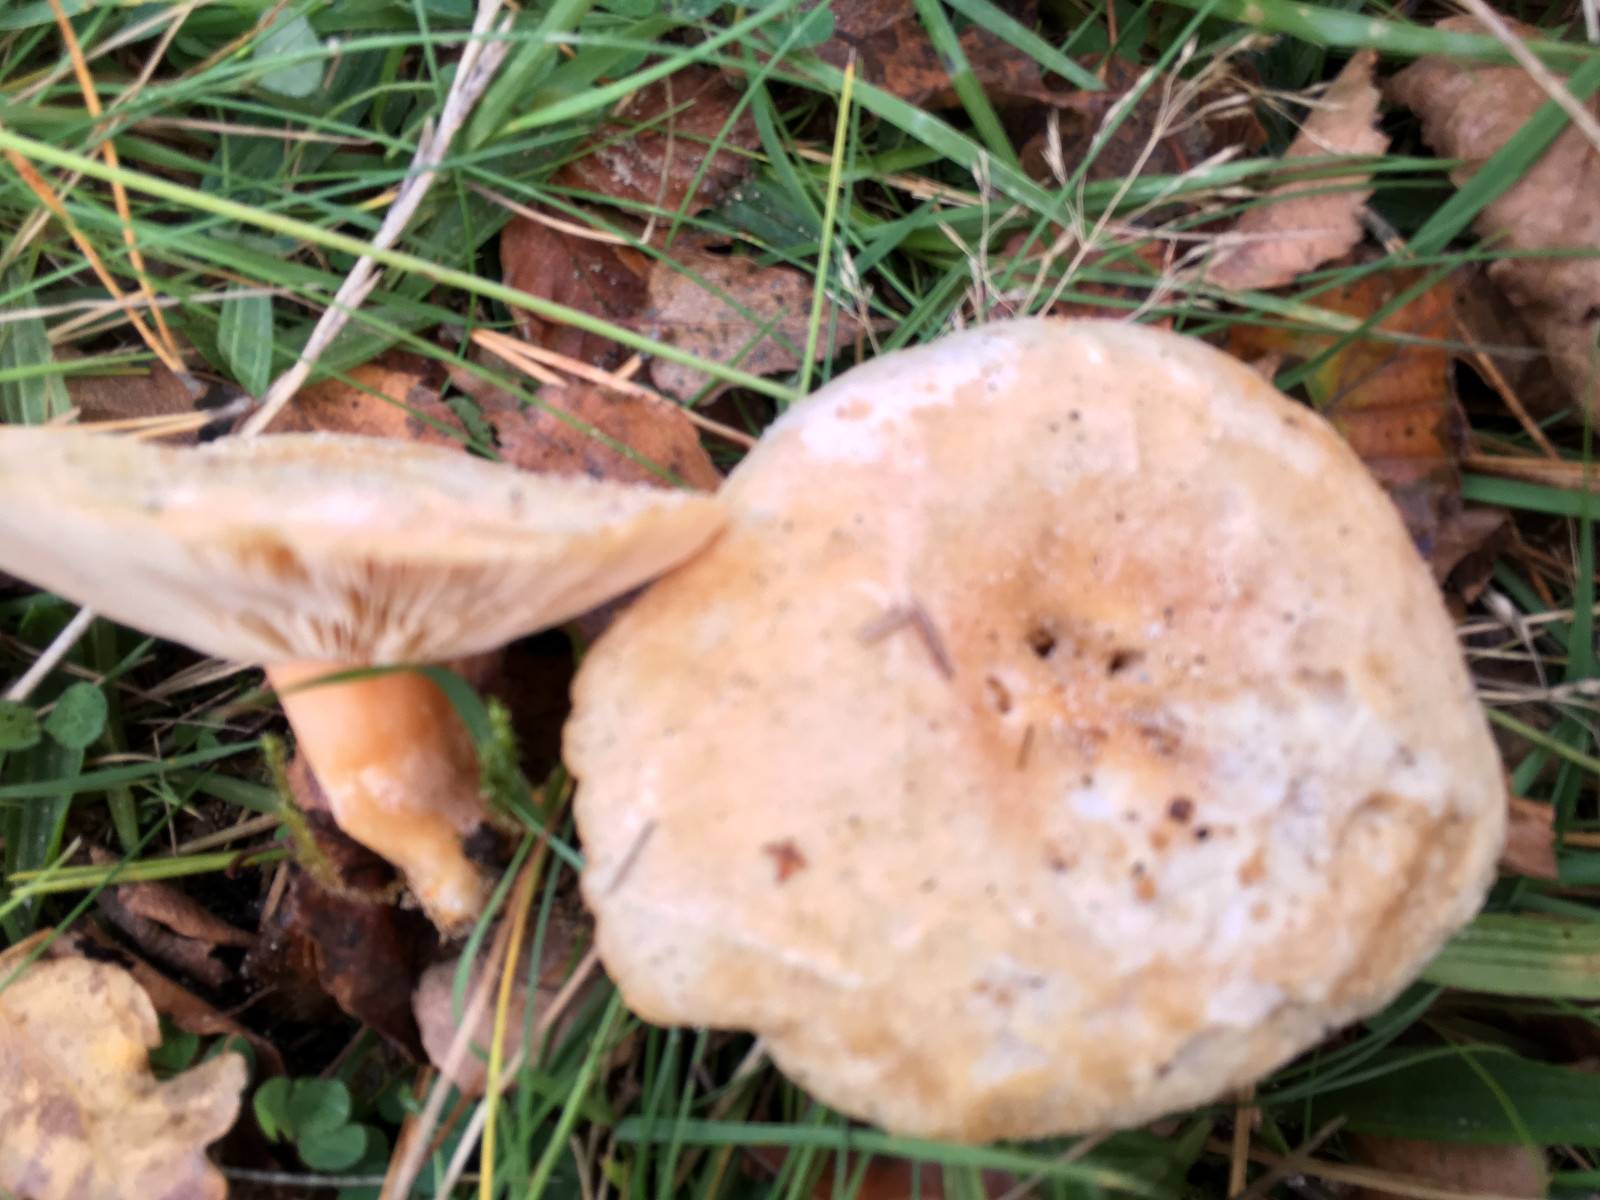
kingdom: Fungi
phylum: Basidiomycota
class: Agaricomycetes
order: Russulales
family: Russulaceae
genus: Lactarius
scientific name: Lactarius pubescens
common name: dunet mælkehat
